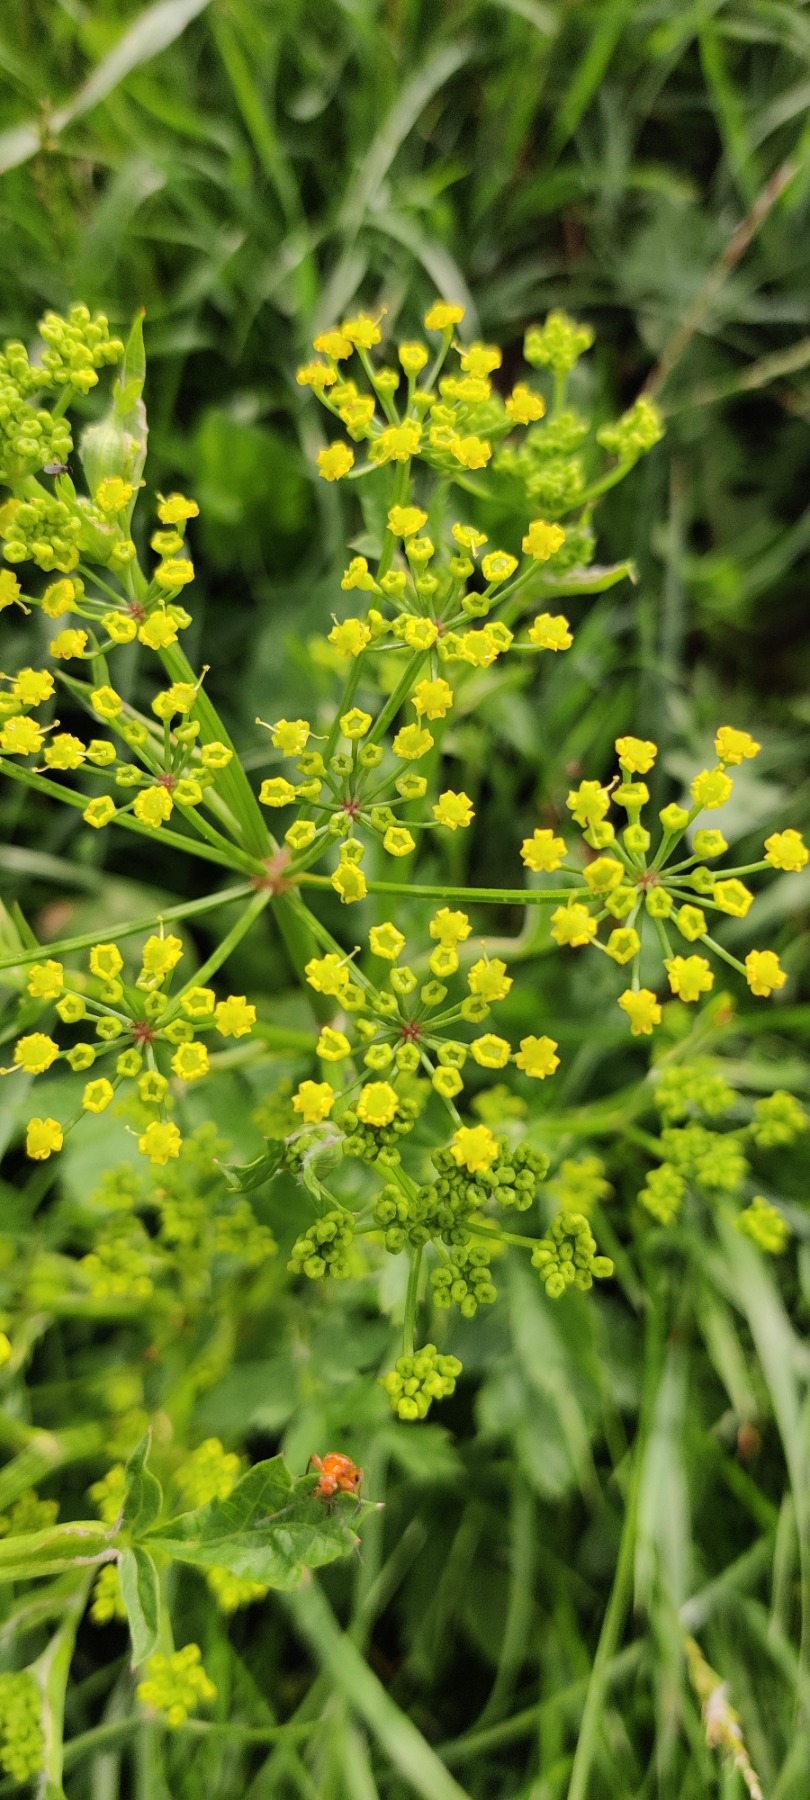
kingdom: Plantae
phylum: Tracheophyta
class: Magnoliopsida
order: Apiales
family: Apiaceae
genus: Pastinaca
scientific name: Pastinaca sativa
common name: Pastinak
